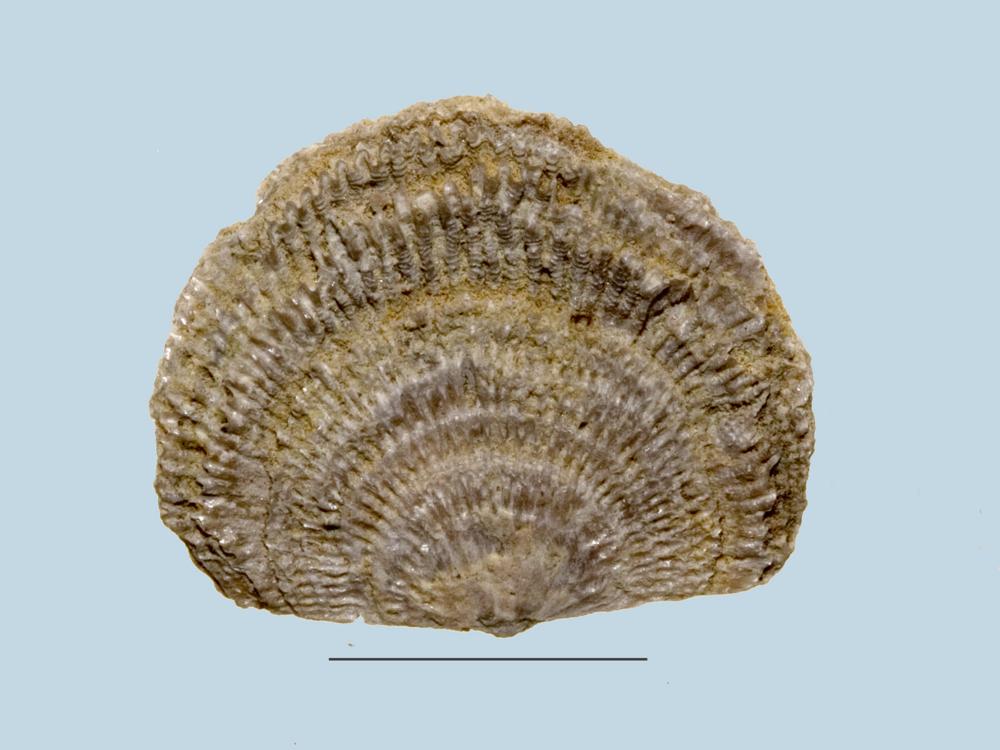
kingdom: Animalia
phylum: Brachiopoda
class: Rhynchonellata
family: Clitambonitidae
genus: Clitambonites
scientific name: Clitambonites Orthisina schmidti
